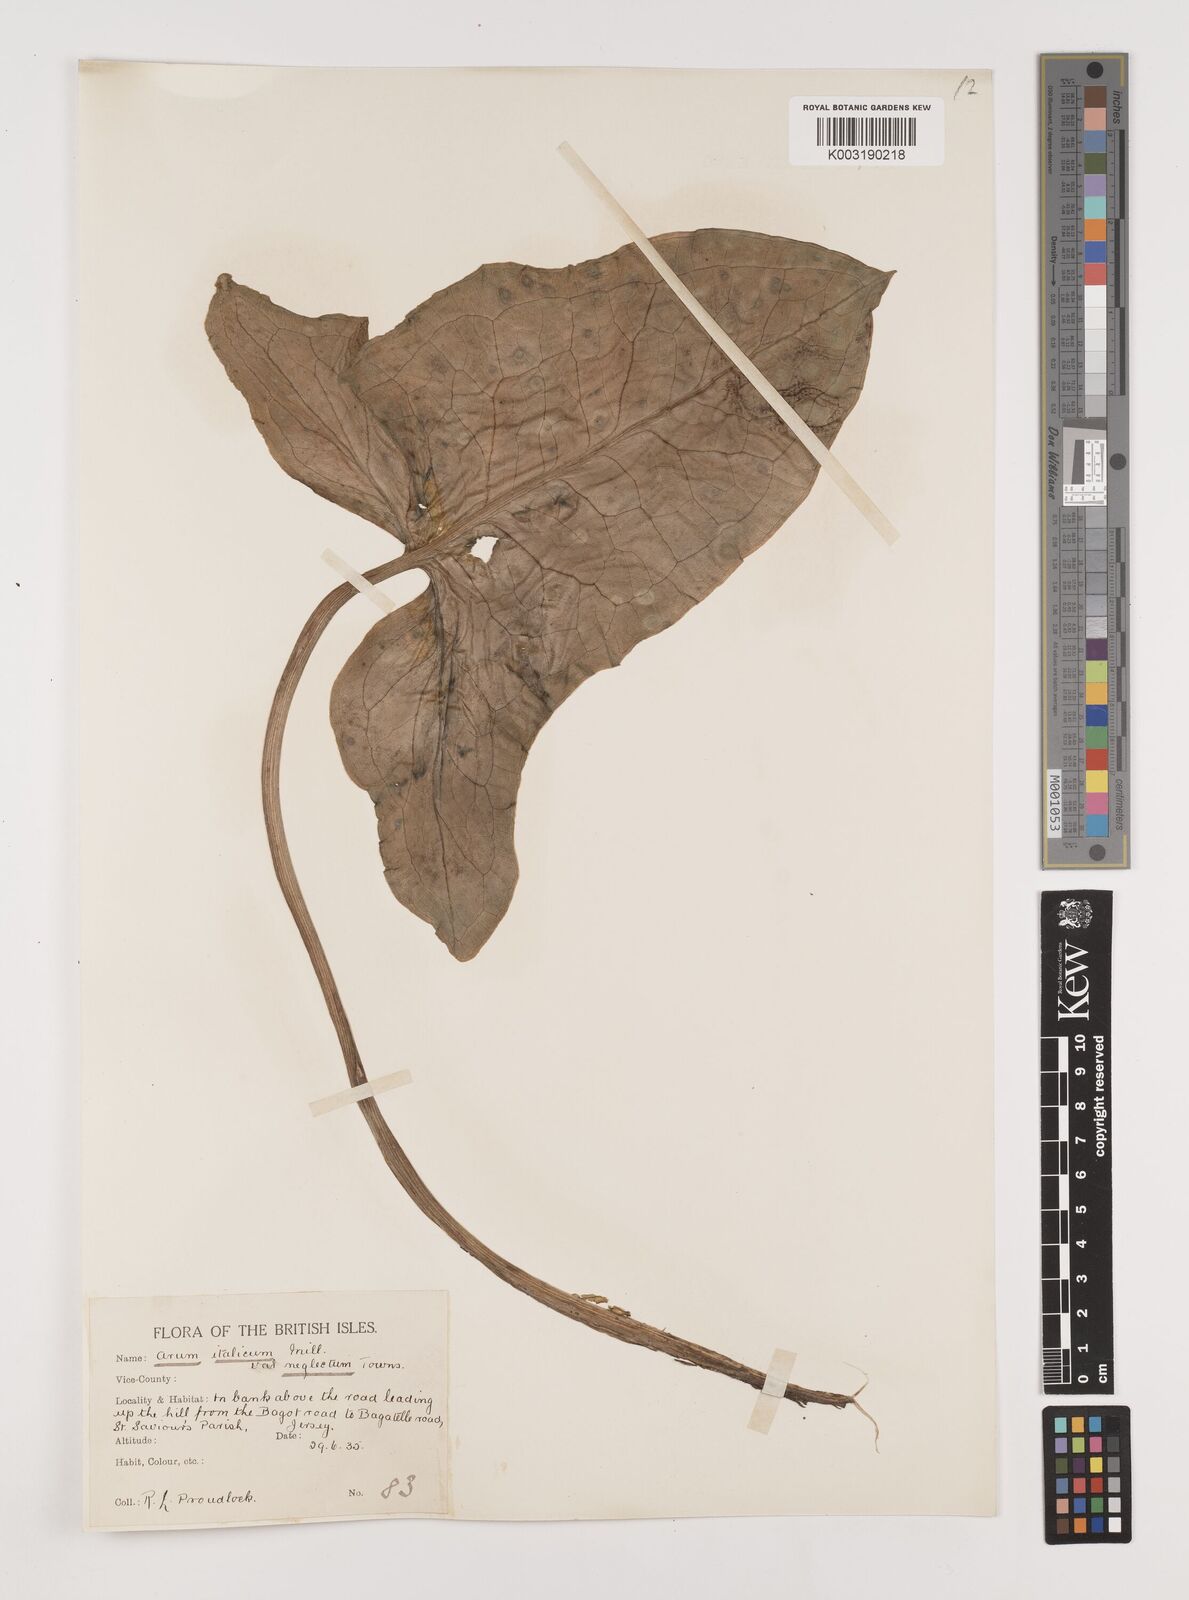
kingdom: Plantae
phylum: Tracheophyta
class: Liliopsida
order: Alismatales
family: Araceae
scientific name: Araceae
